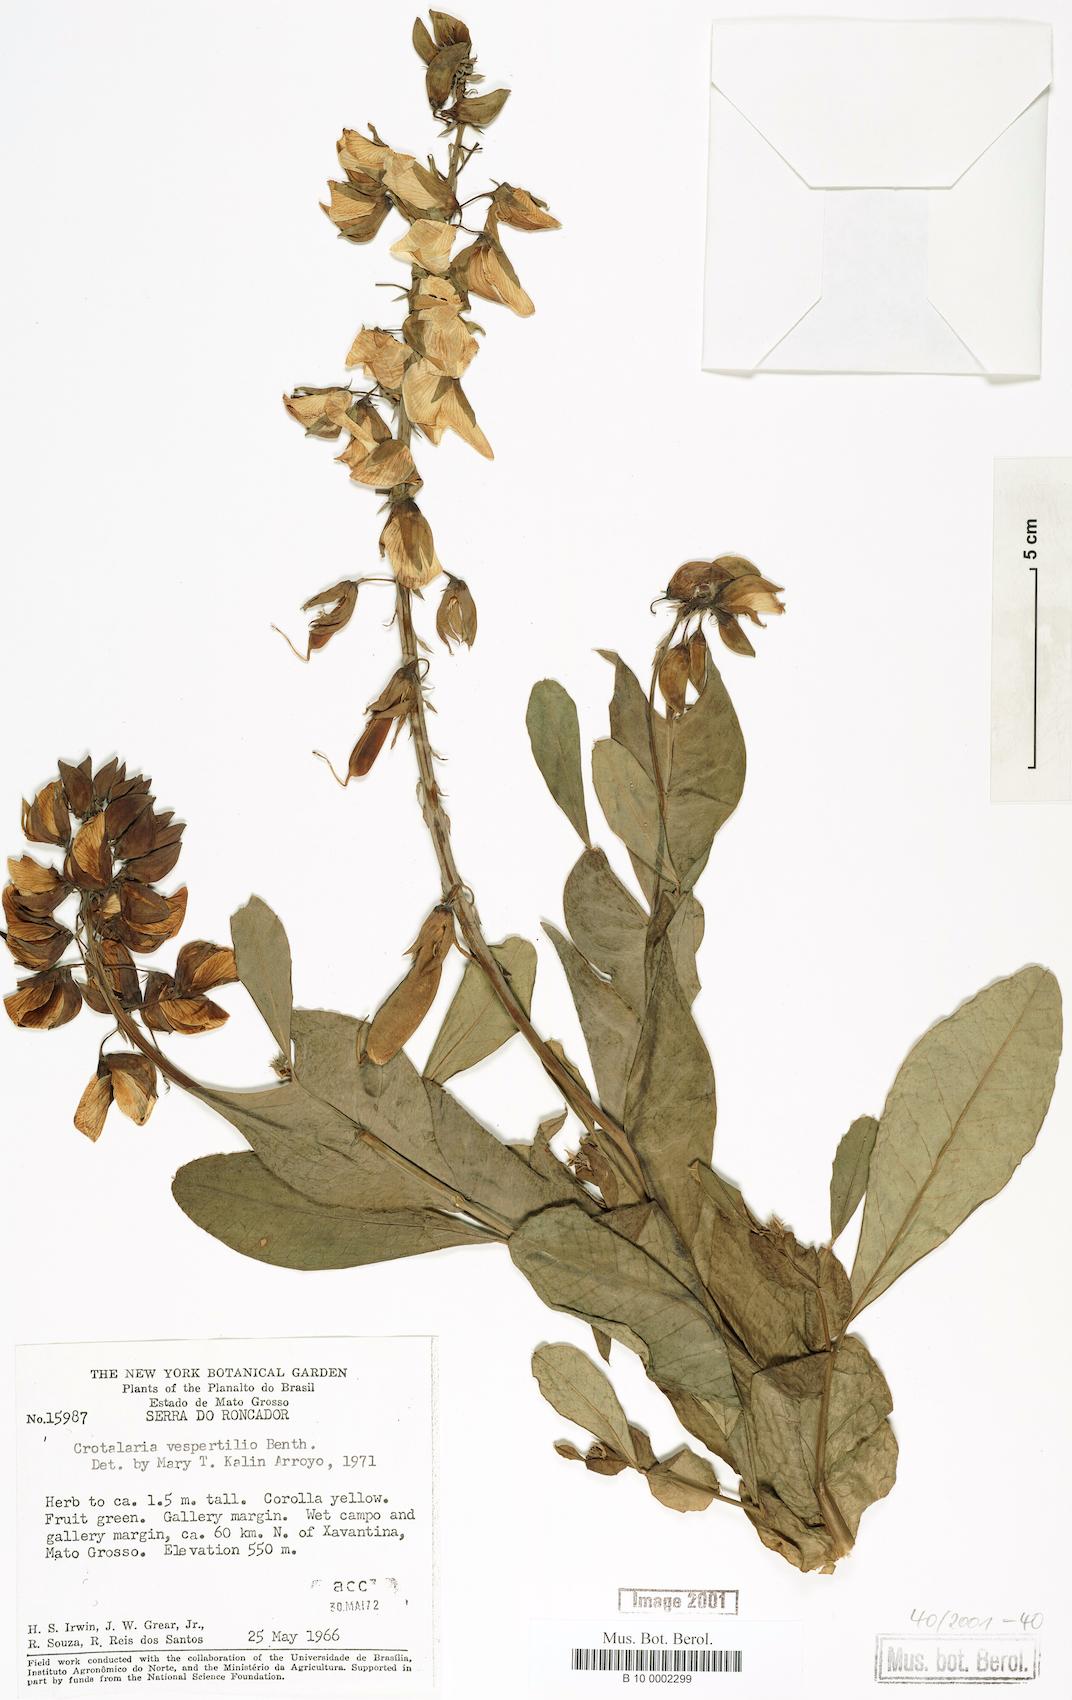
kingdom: Plantae
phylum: Tracheophyta
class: Magnoliopsida
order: Fabales
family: Fabaceae
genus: Crotalaria
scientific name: Crotalaria vespertilio
